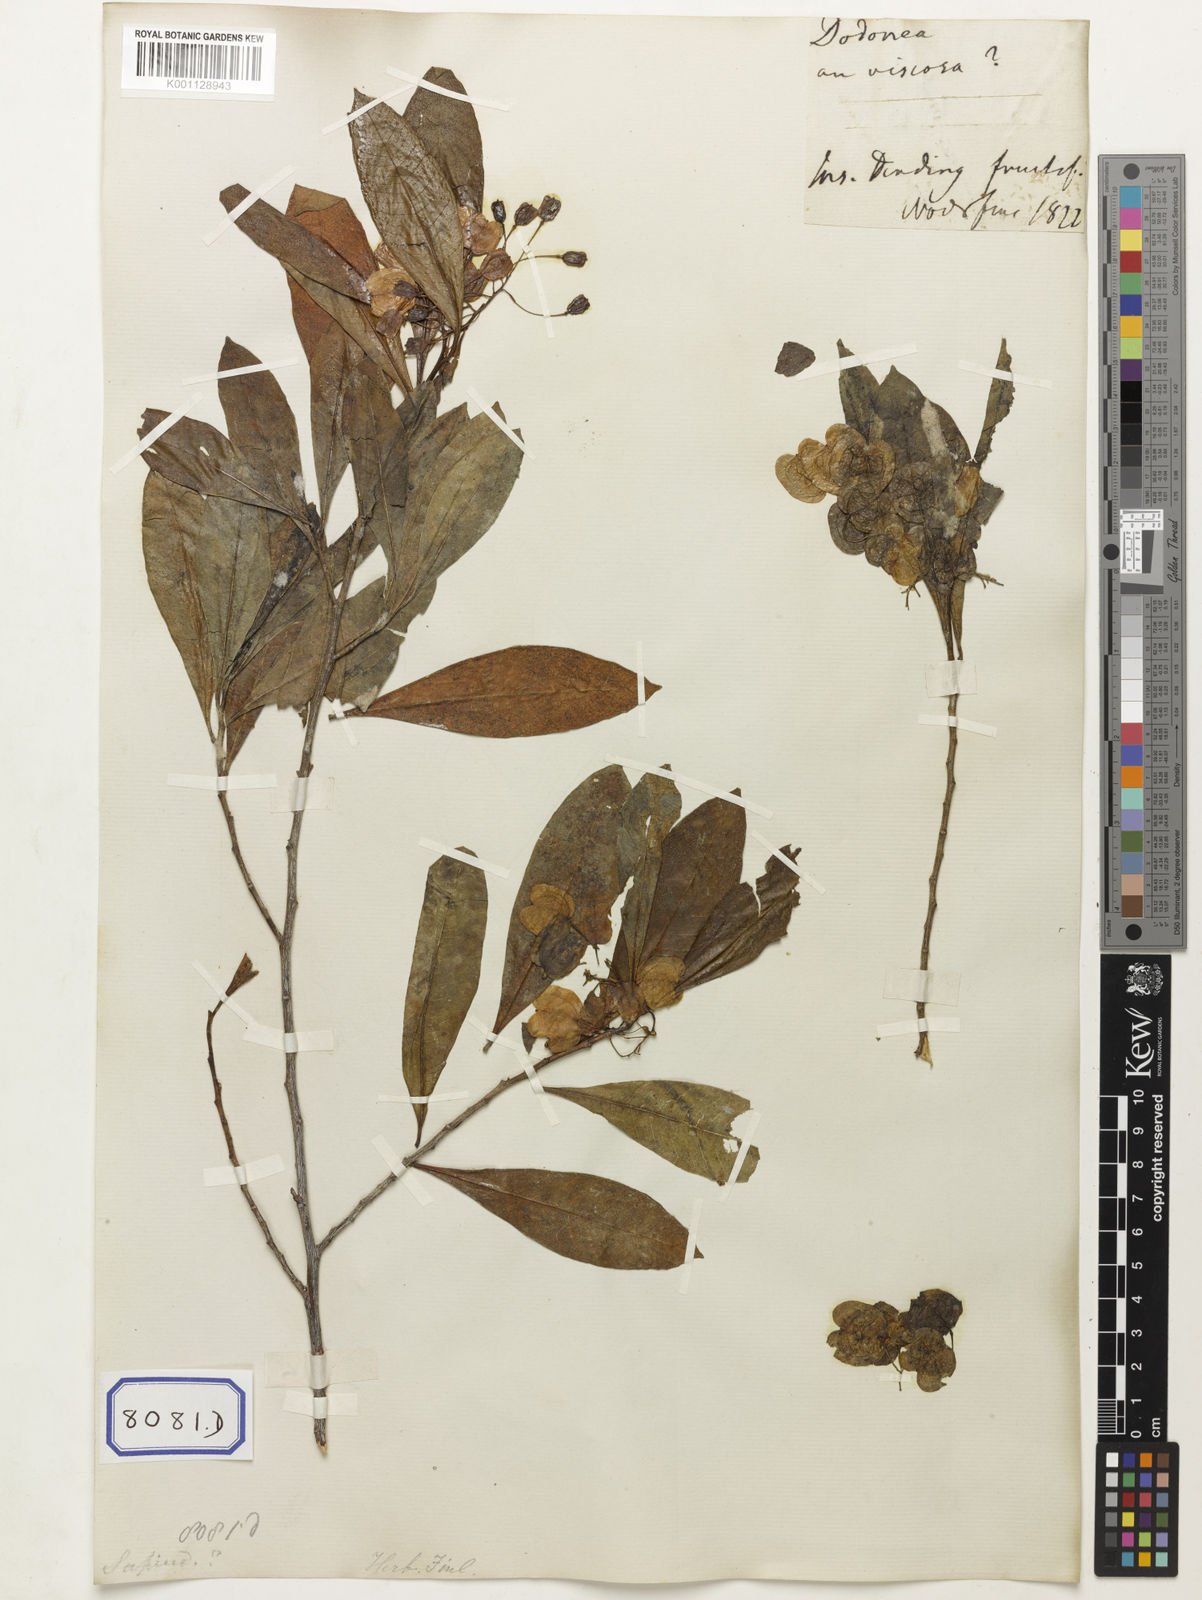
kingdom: Plantae
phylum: Tracheophyta
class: Magnoliopsida
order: Sapindales
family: Sapindaceae
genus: Dodonaea
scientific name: Dodonaea
